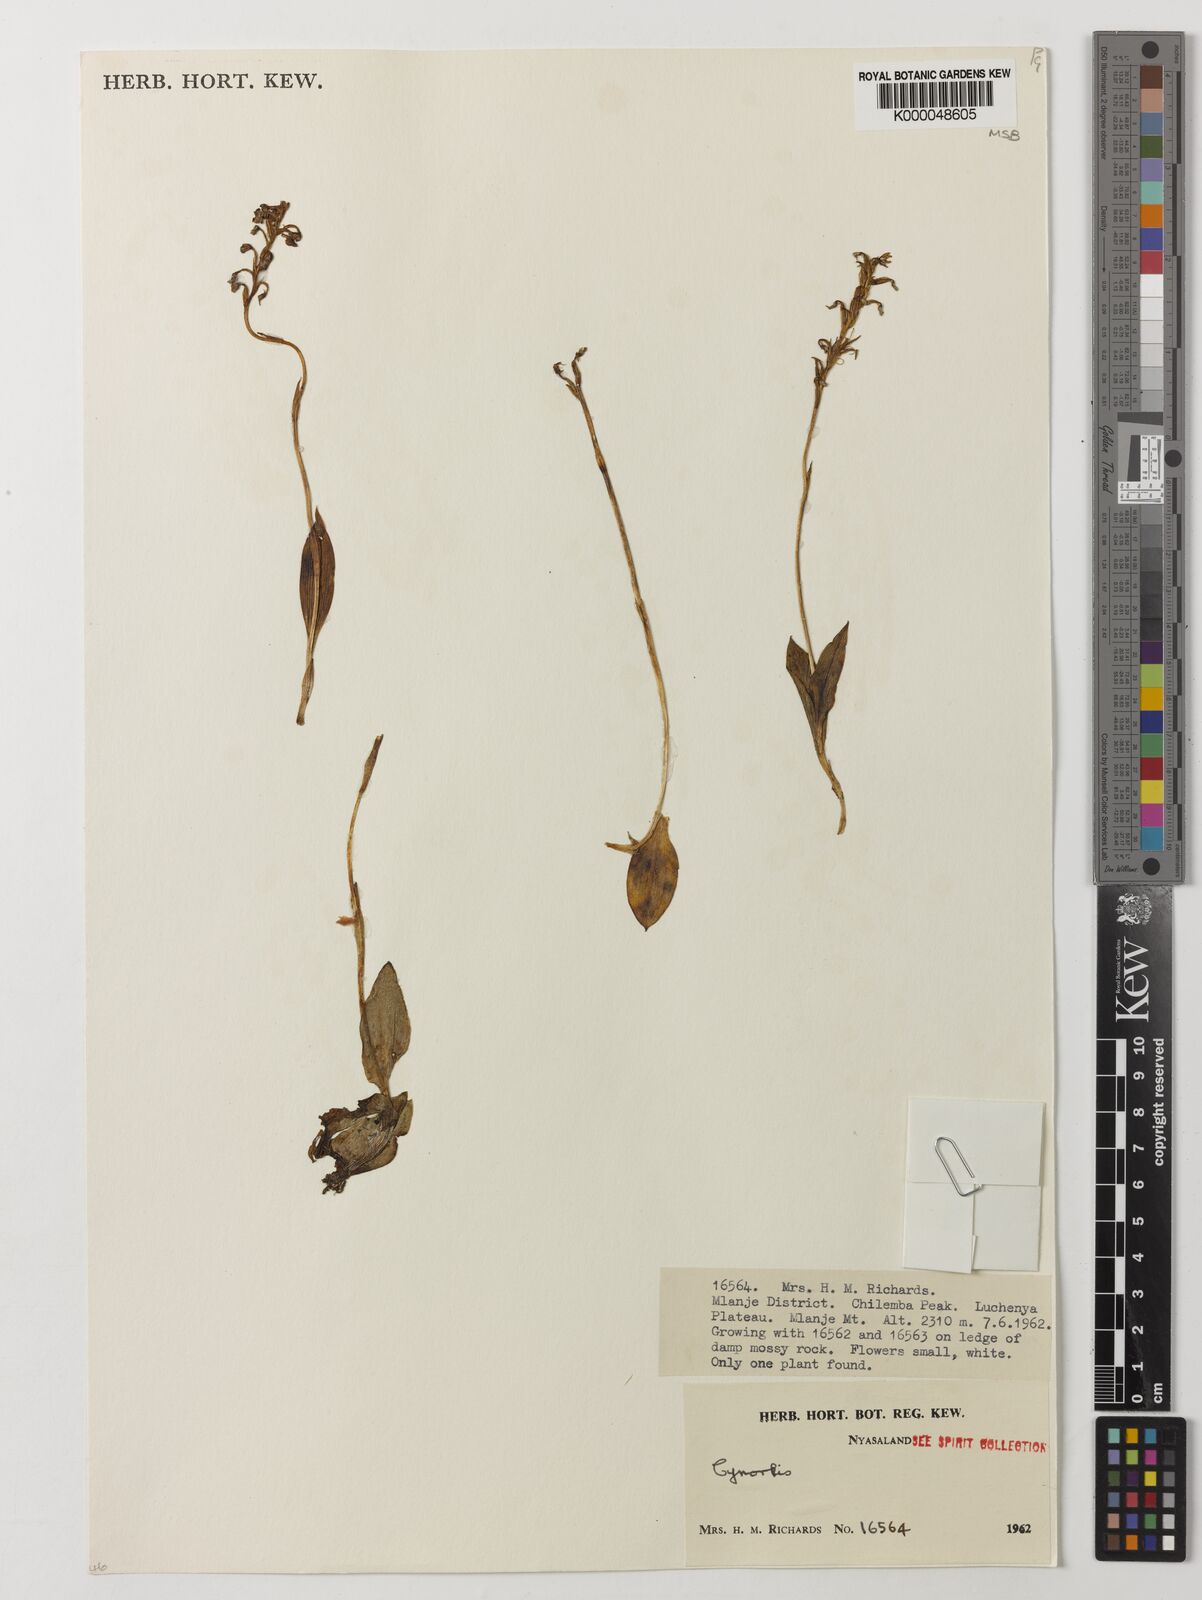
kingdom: Plantae
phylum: Tracheophyta
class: Liliopsida
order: Asparagales
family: Orchidaceae
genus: Cynorkis
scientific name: Cynorkis brevicalcar
